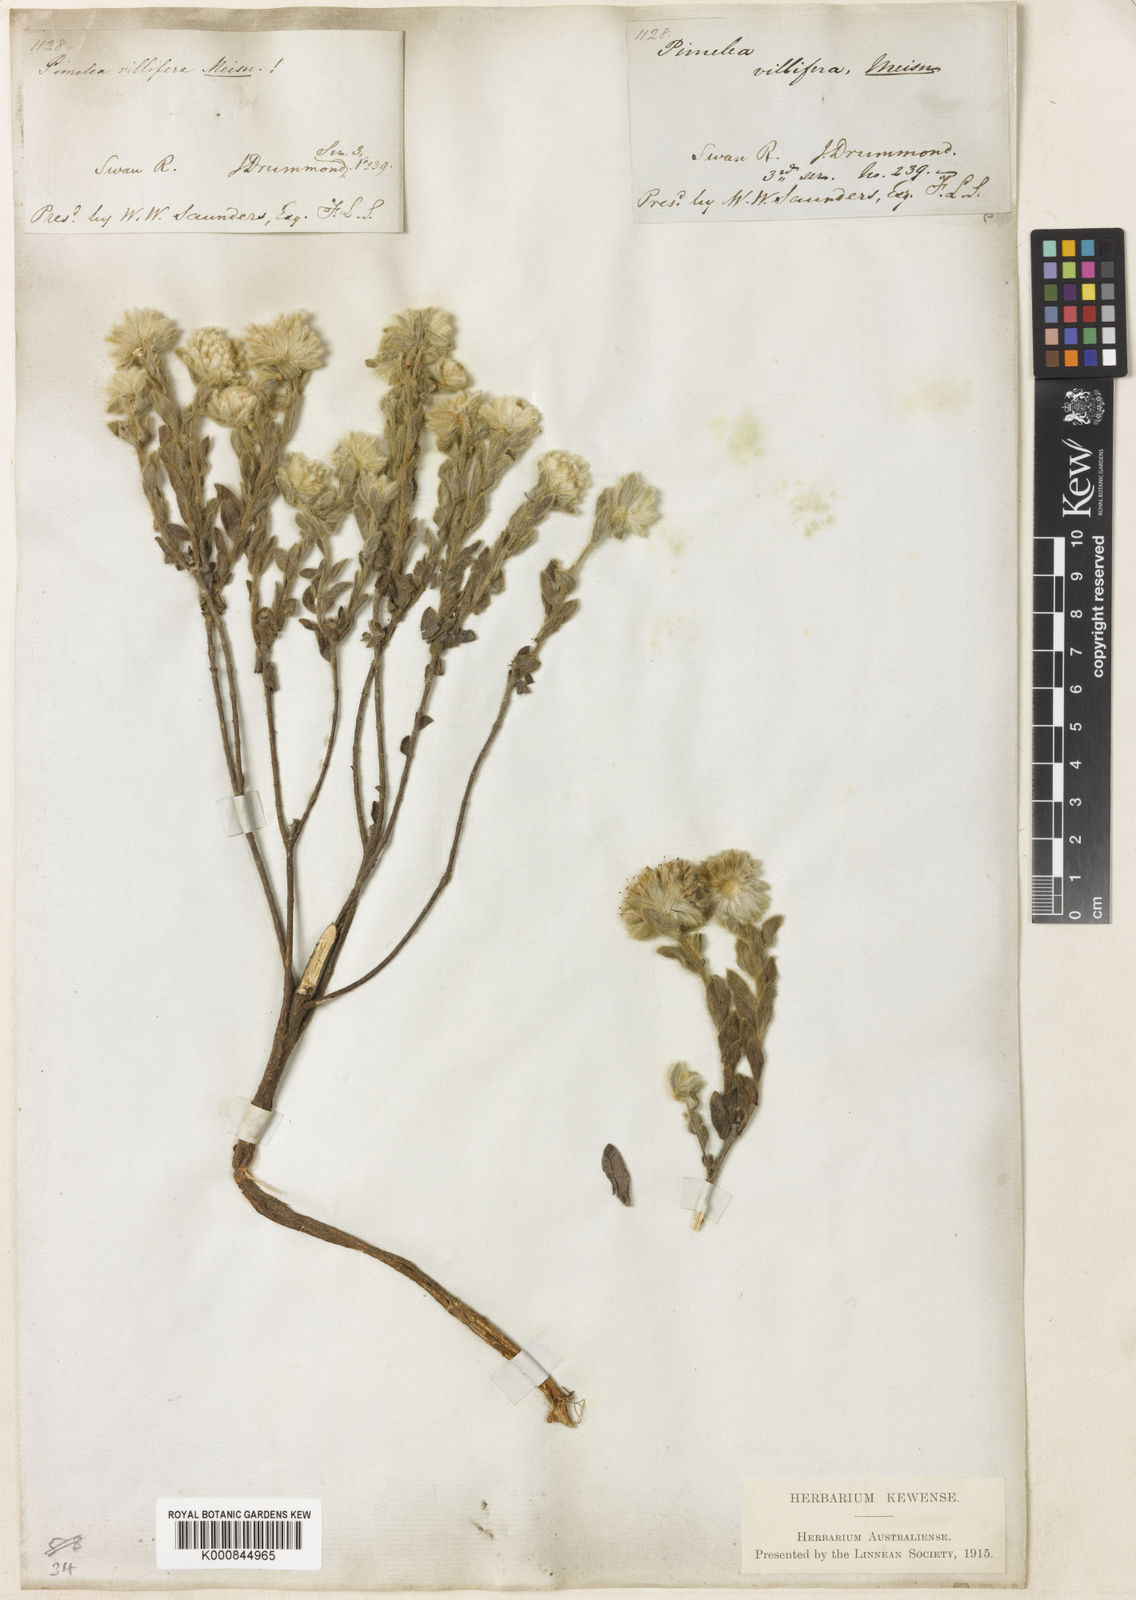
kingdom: Plantae
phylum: Tracheophyta
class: Magnoliopsida
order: Malvales
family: Thymelaeaceae
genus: Pimelea
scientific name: Pimelea villifera
